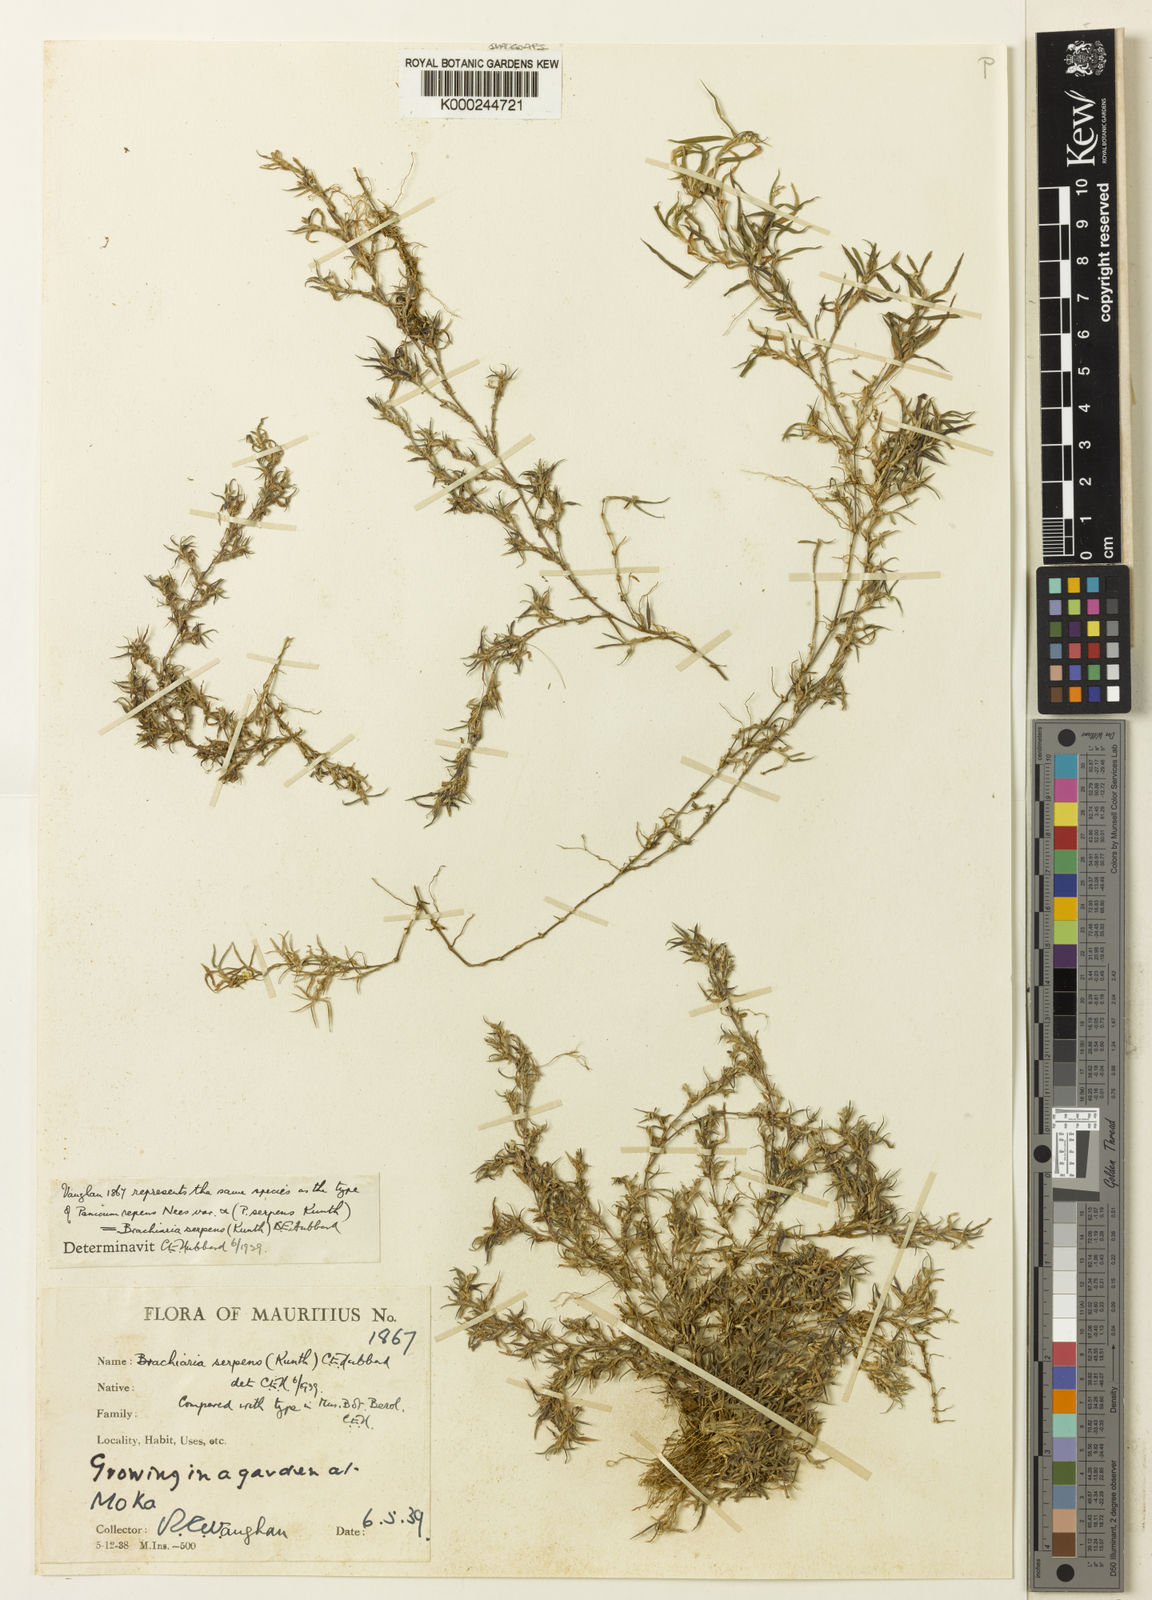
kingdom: Plantae
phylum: Tracheophyta
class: Liliopsida
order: Poales
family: Poaceae
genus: Urochloa
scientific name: Urochloa Brachiaria serpens
